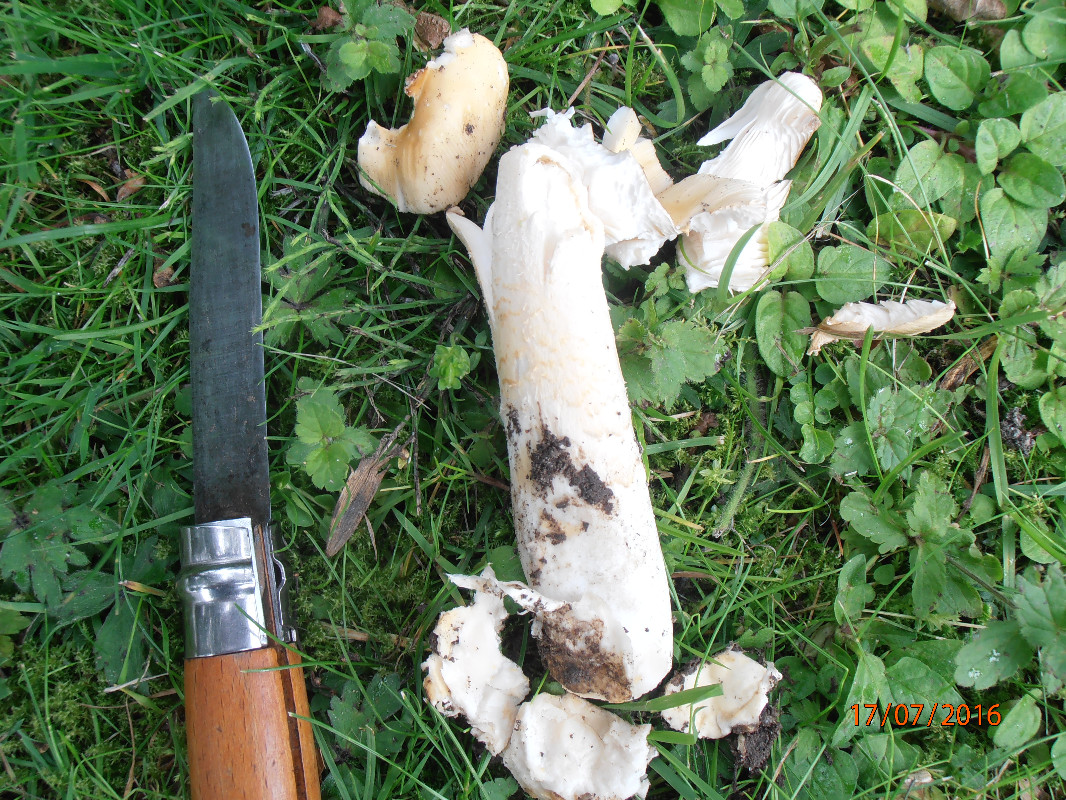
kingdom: Fungi
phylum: Basidiomycota
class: Agaricomycetes
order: Agaricales
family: Amanitaceae
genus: Amanita
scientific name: Amanita lividopallescens
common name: afblegende kam-fluesvamp
